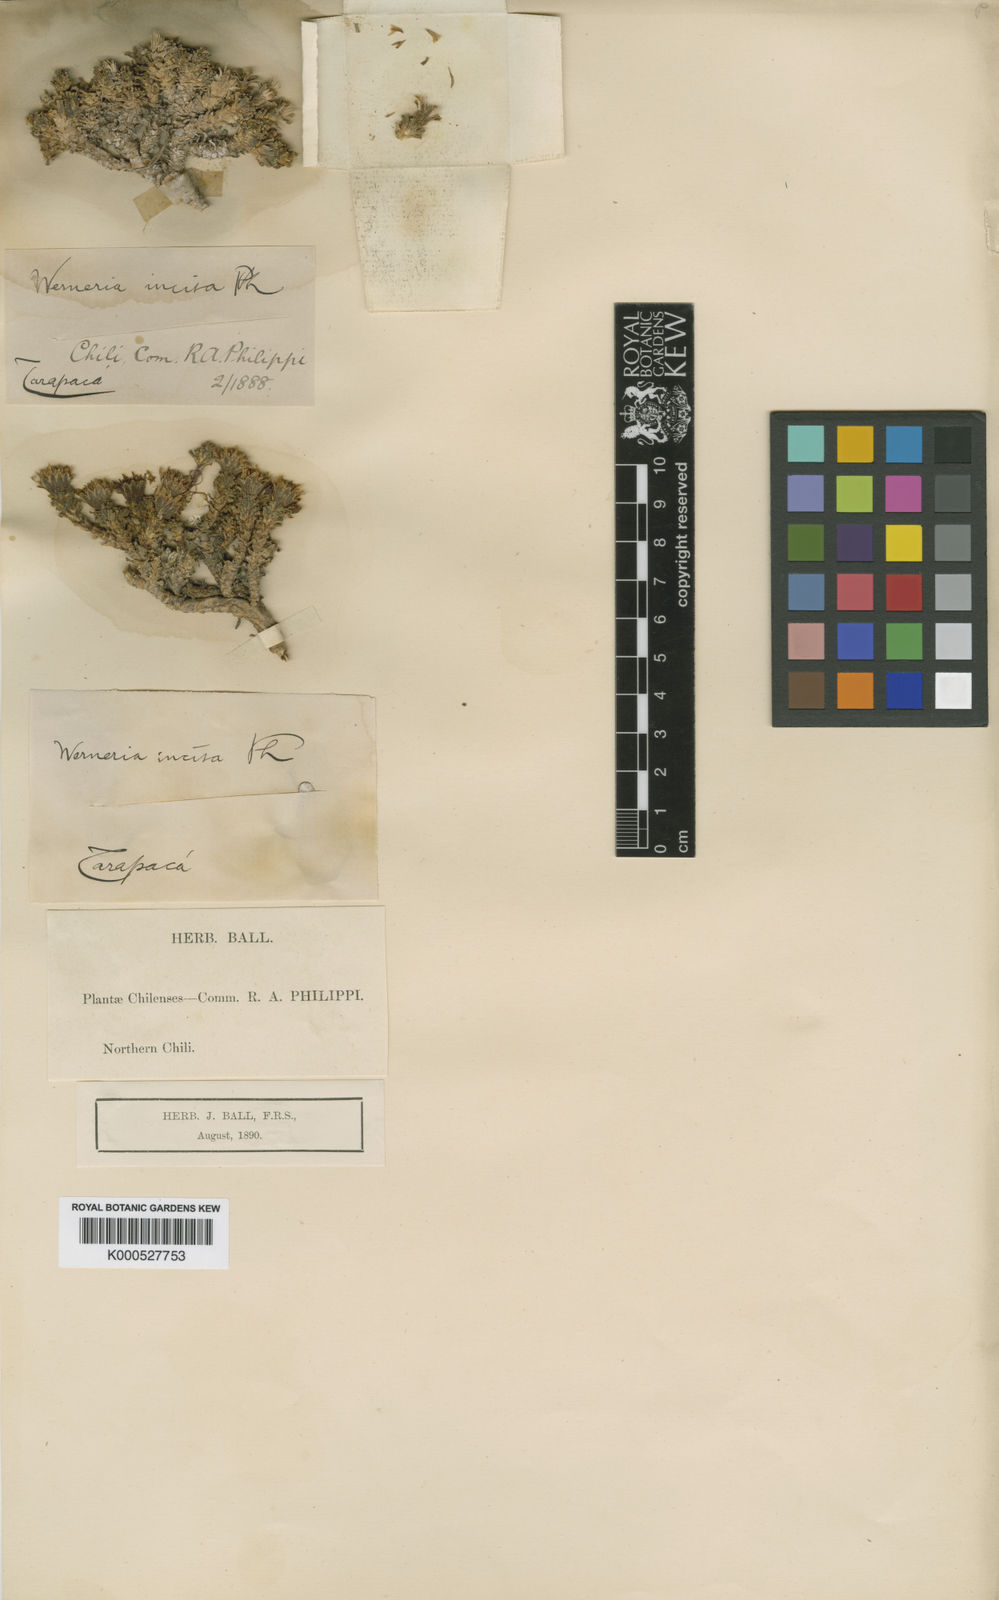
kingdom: Plantae
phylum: Tracheophyta
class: Magnoliopsida
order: Asterales
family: Asteraceae
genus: Werneria
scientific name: Werneria incisa
